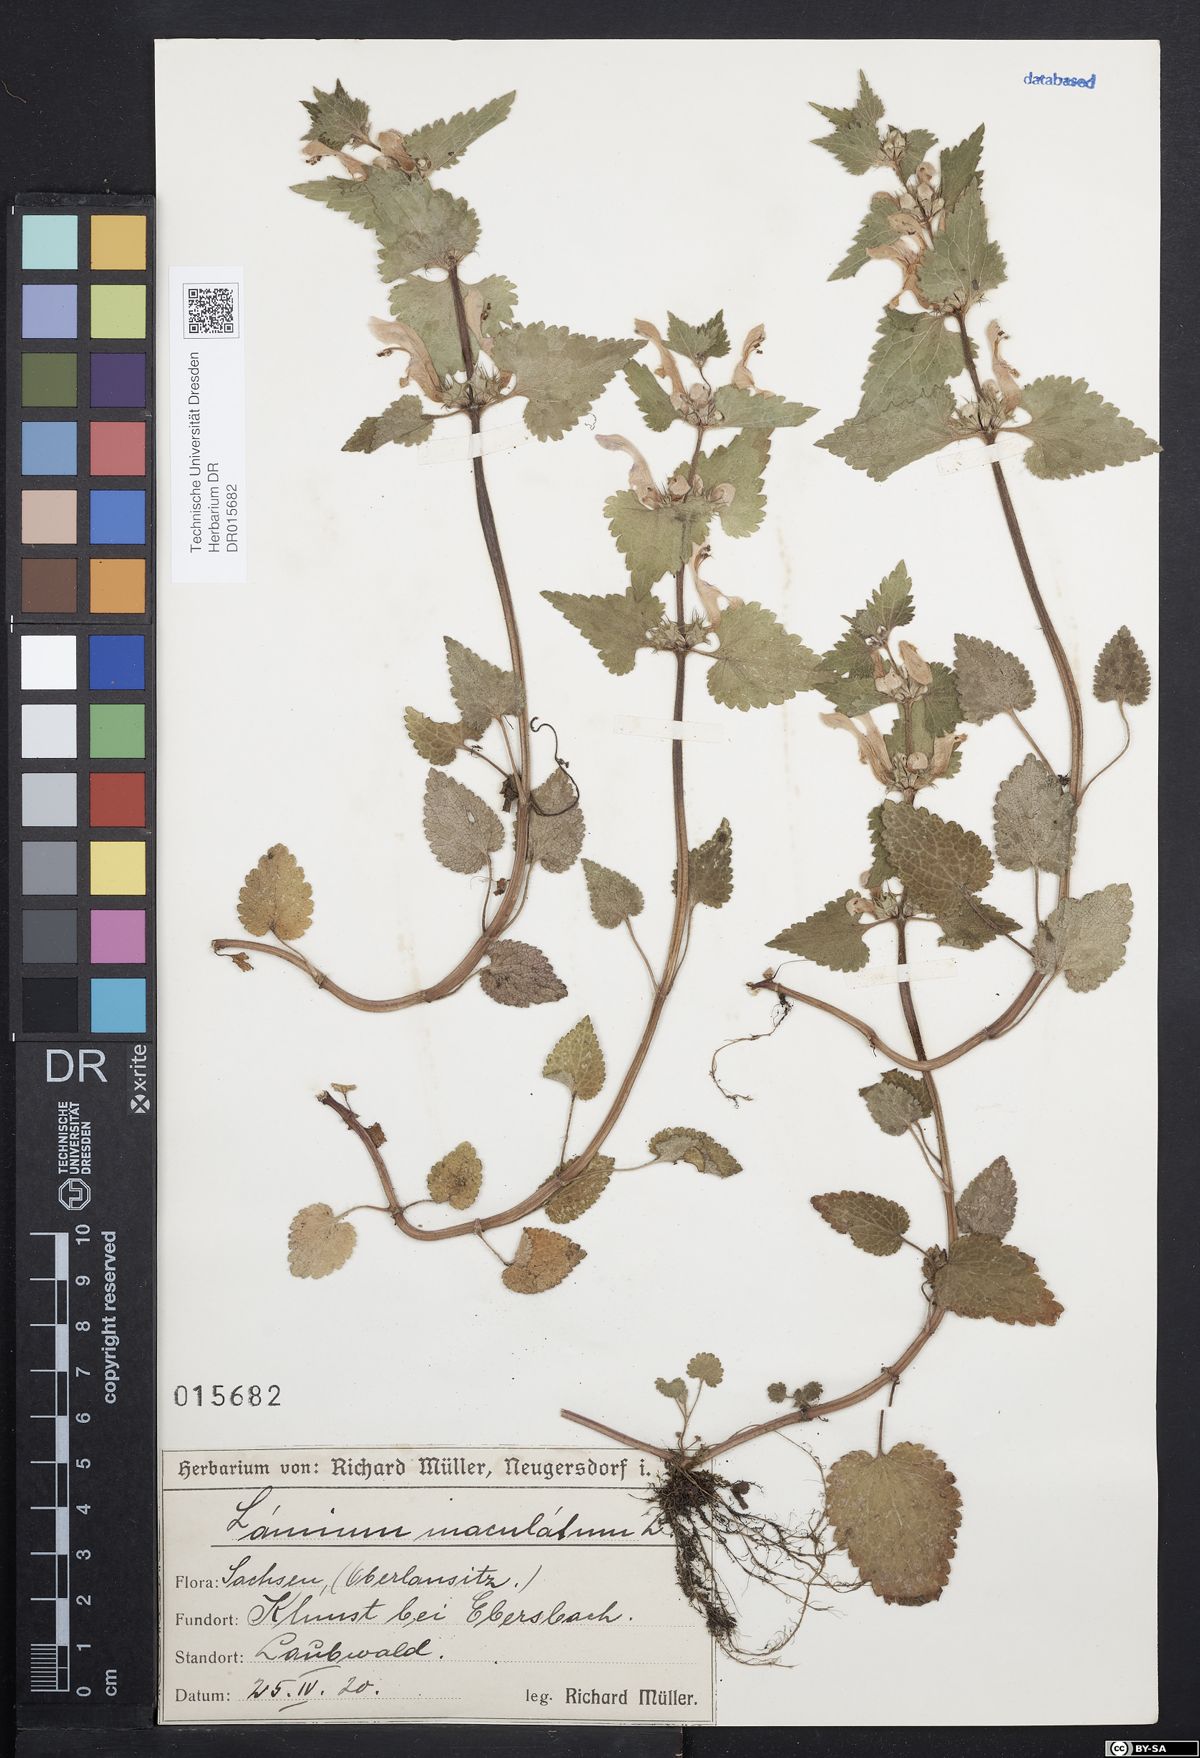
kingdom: Plantae
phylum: Tracheophyta
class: Magnoliopsida
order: Lamiales
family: Lamiaceae
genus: Lamium
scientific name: Lamium maculatum
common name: Spotted dead-nettle
